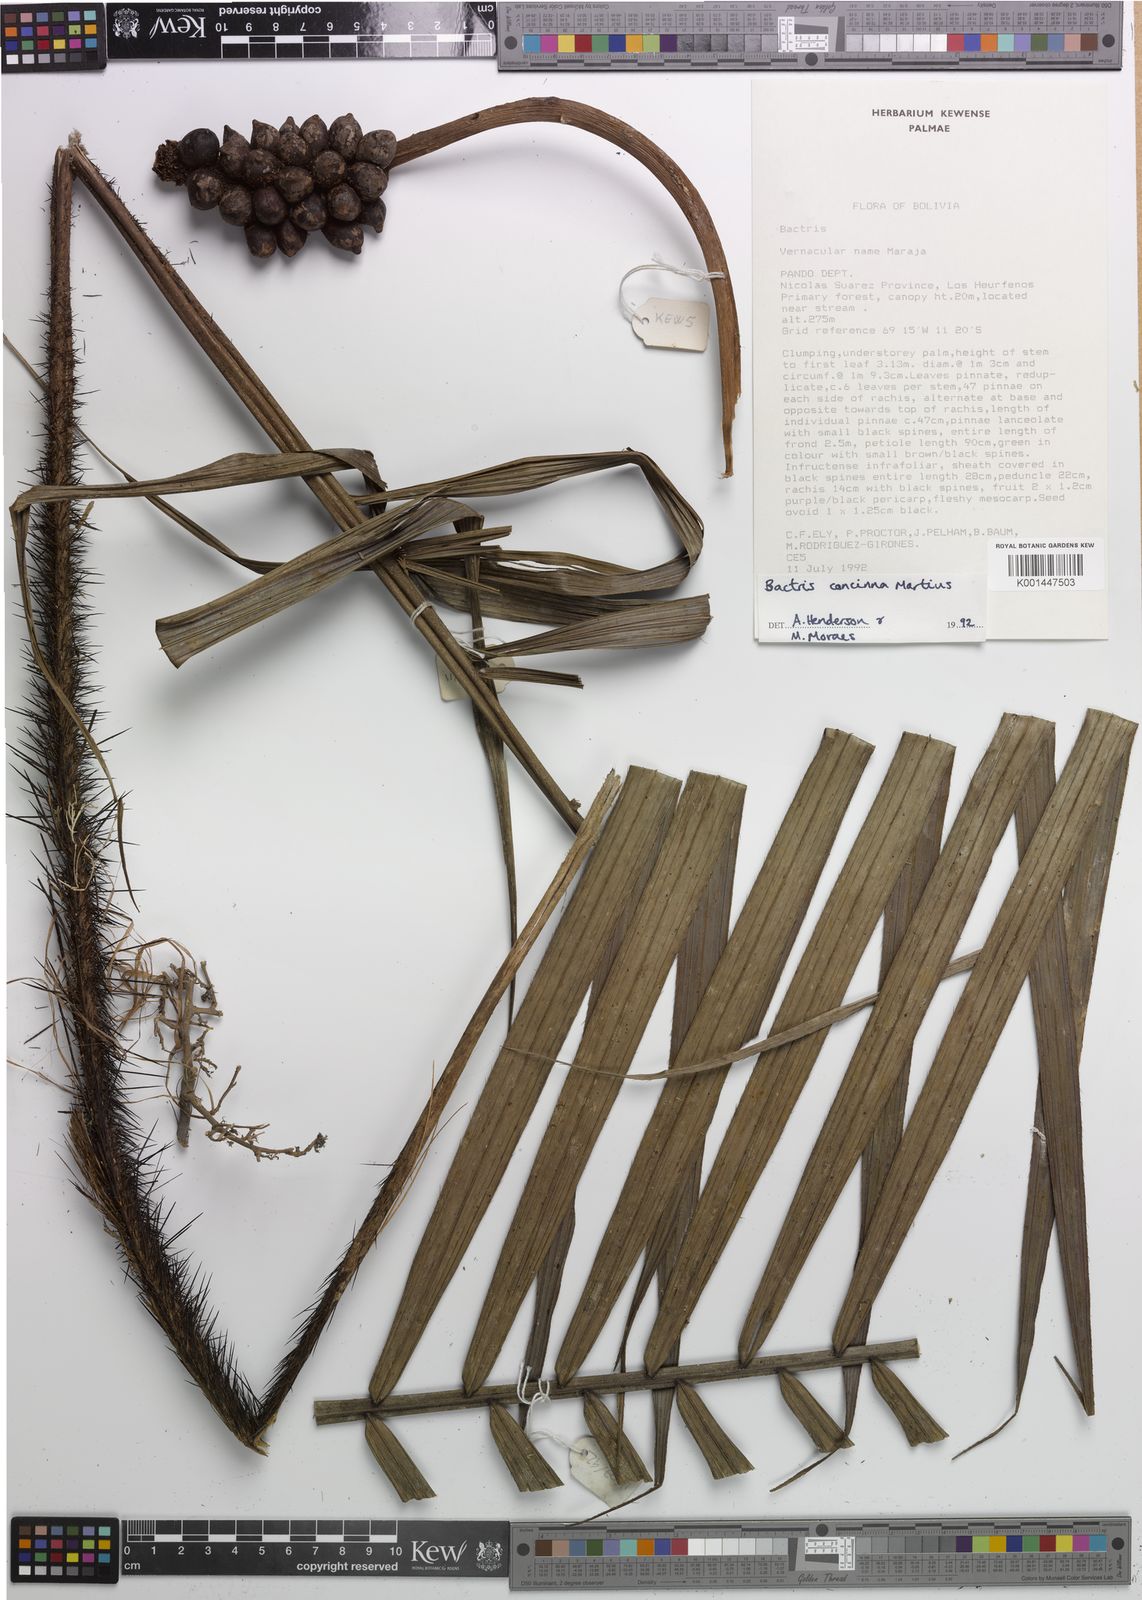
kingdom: Plantae
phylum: Tracheophyta
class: Liliopsida
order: Arecales
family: Arecaceae
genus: Bactris
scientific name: Bactris concinna
